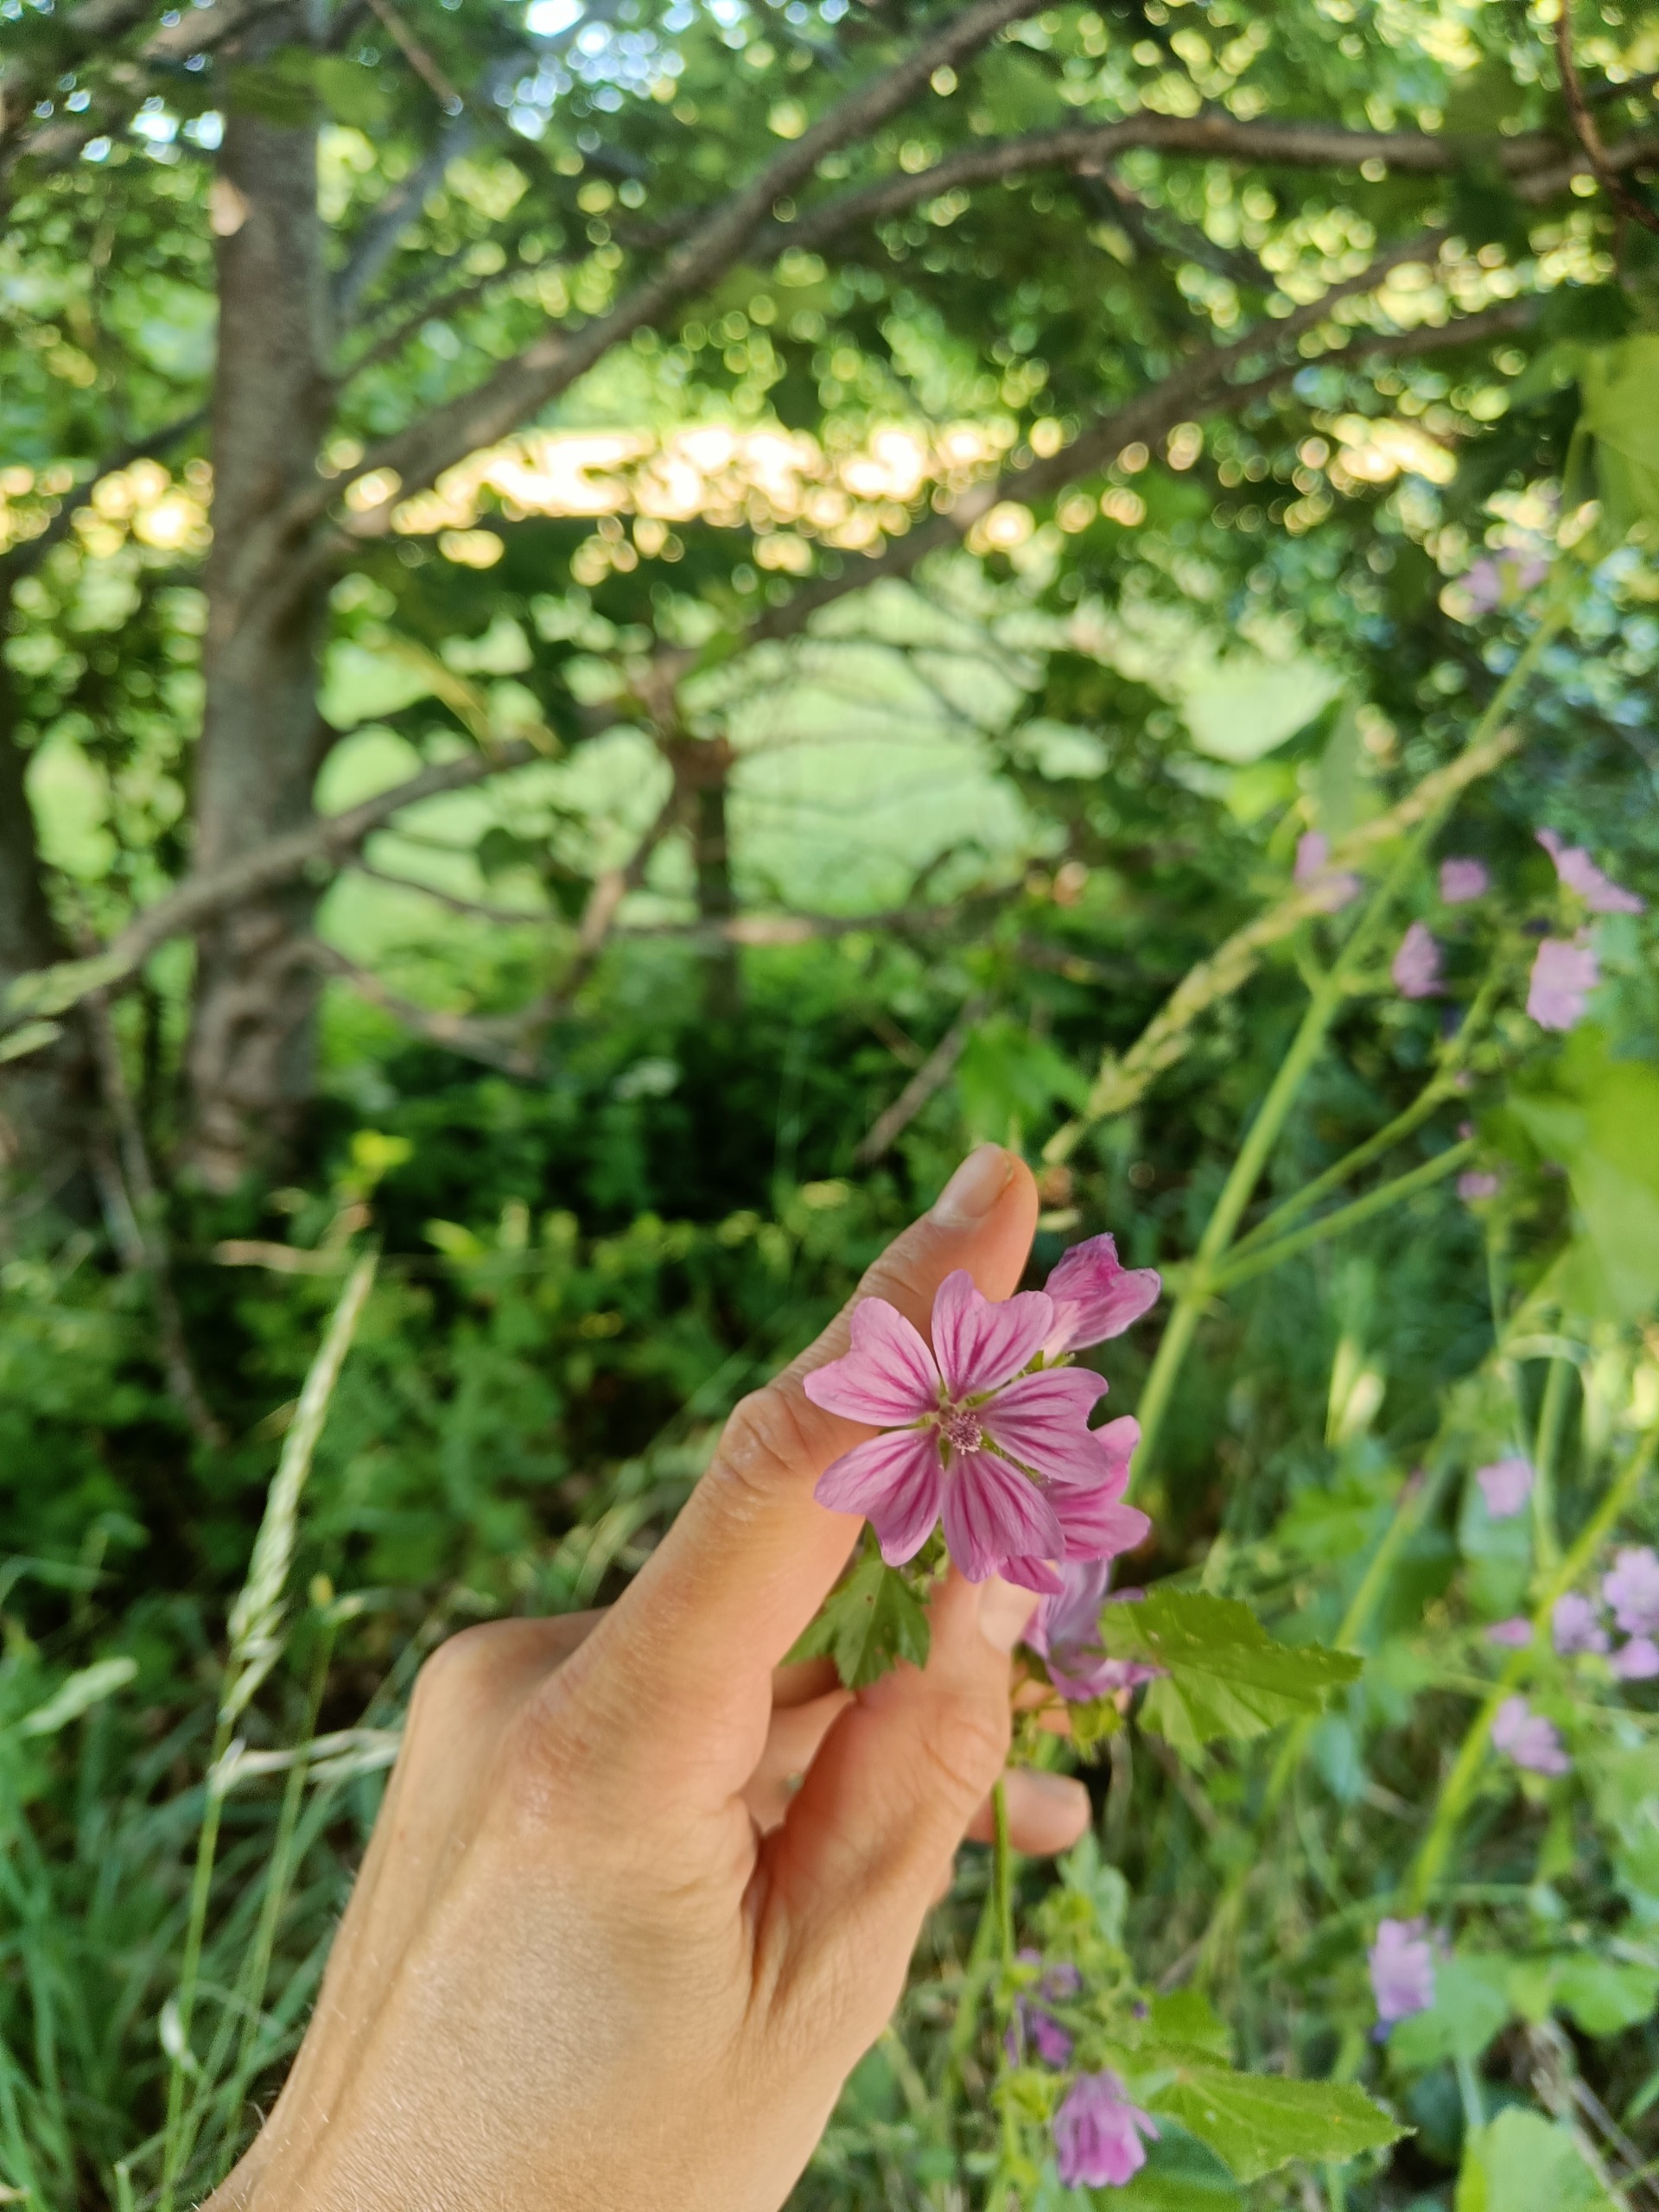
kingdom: Plantae
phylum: Tracheophyta
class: Magnoliopsida
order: Malvales
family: Malvaceae
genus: Malva
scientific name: Malva sylvestris
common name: Almindelig katost
